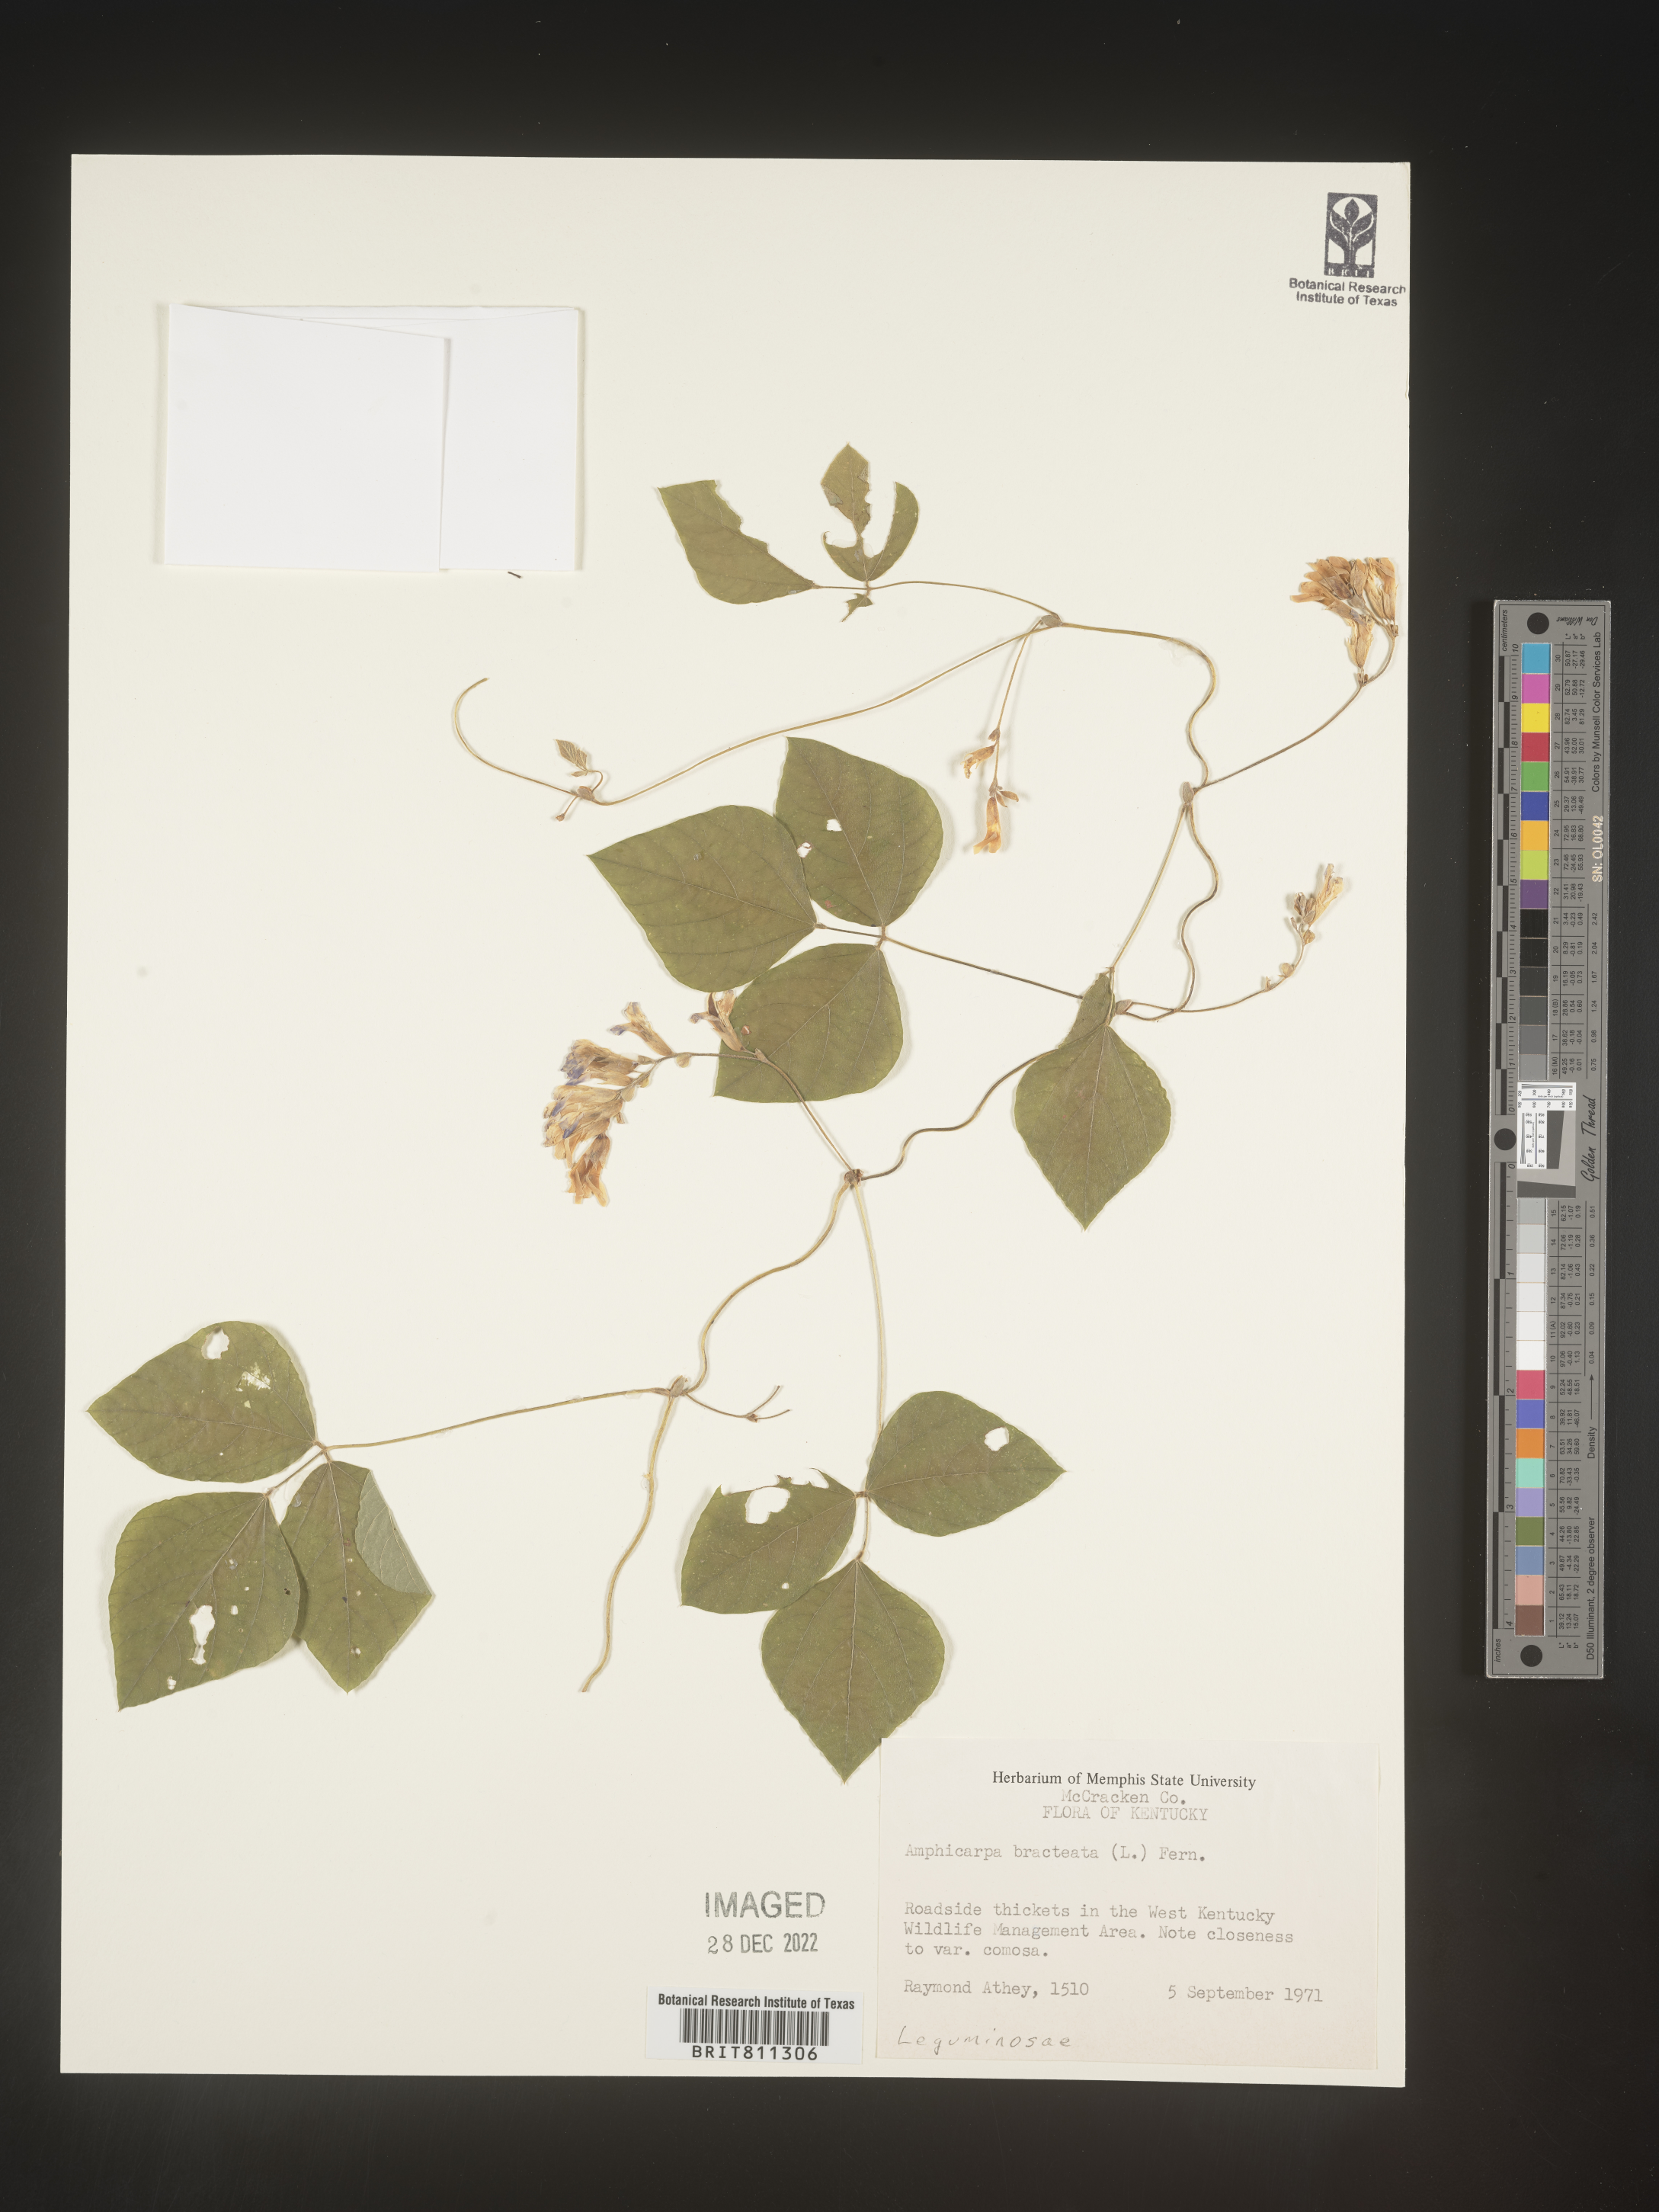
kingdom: Plantae
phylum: Tracheophyta
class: Magnoliopsida
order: Fabales
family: Fabaceae
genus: Amphicarpaea
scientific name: Amphicarpaea bracteata
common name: American hog peanut
